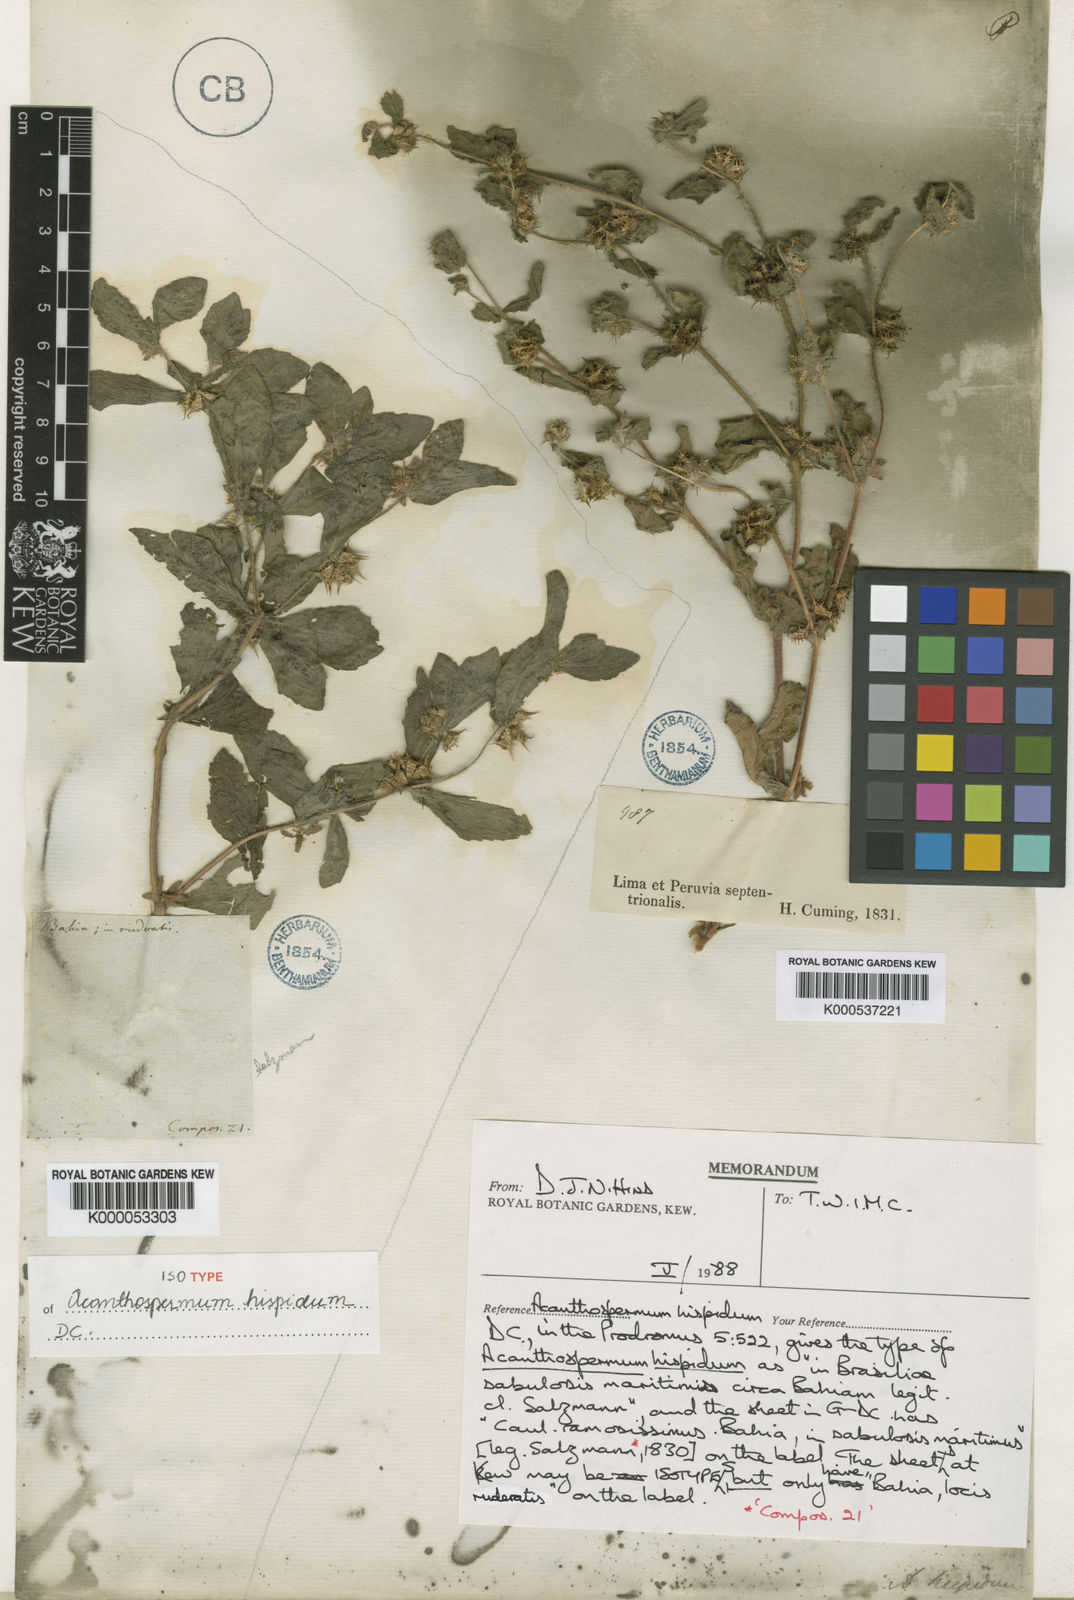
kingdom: Plantae
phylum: Tracheophyta
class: Magnoliopsida
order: Asterales
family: Asteraceae
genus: Acanthospermum
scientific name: Acanthospermum hispidum
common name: Hispid starbur
